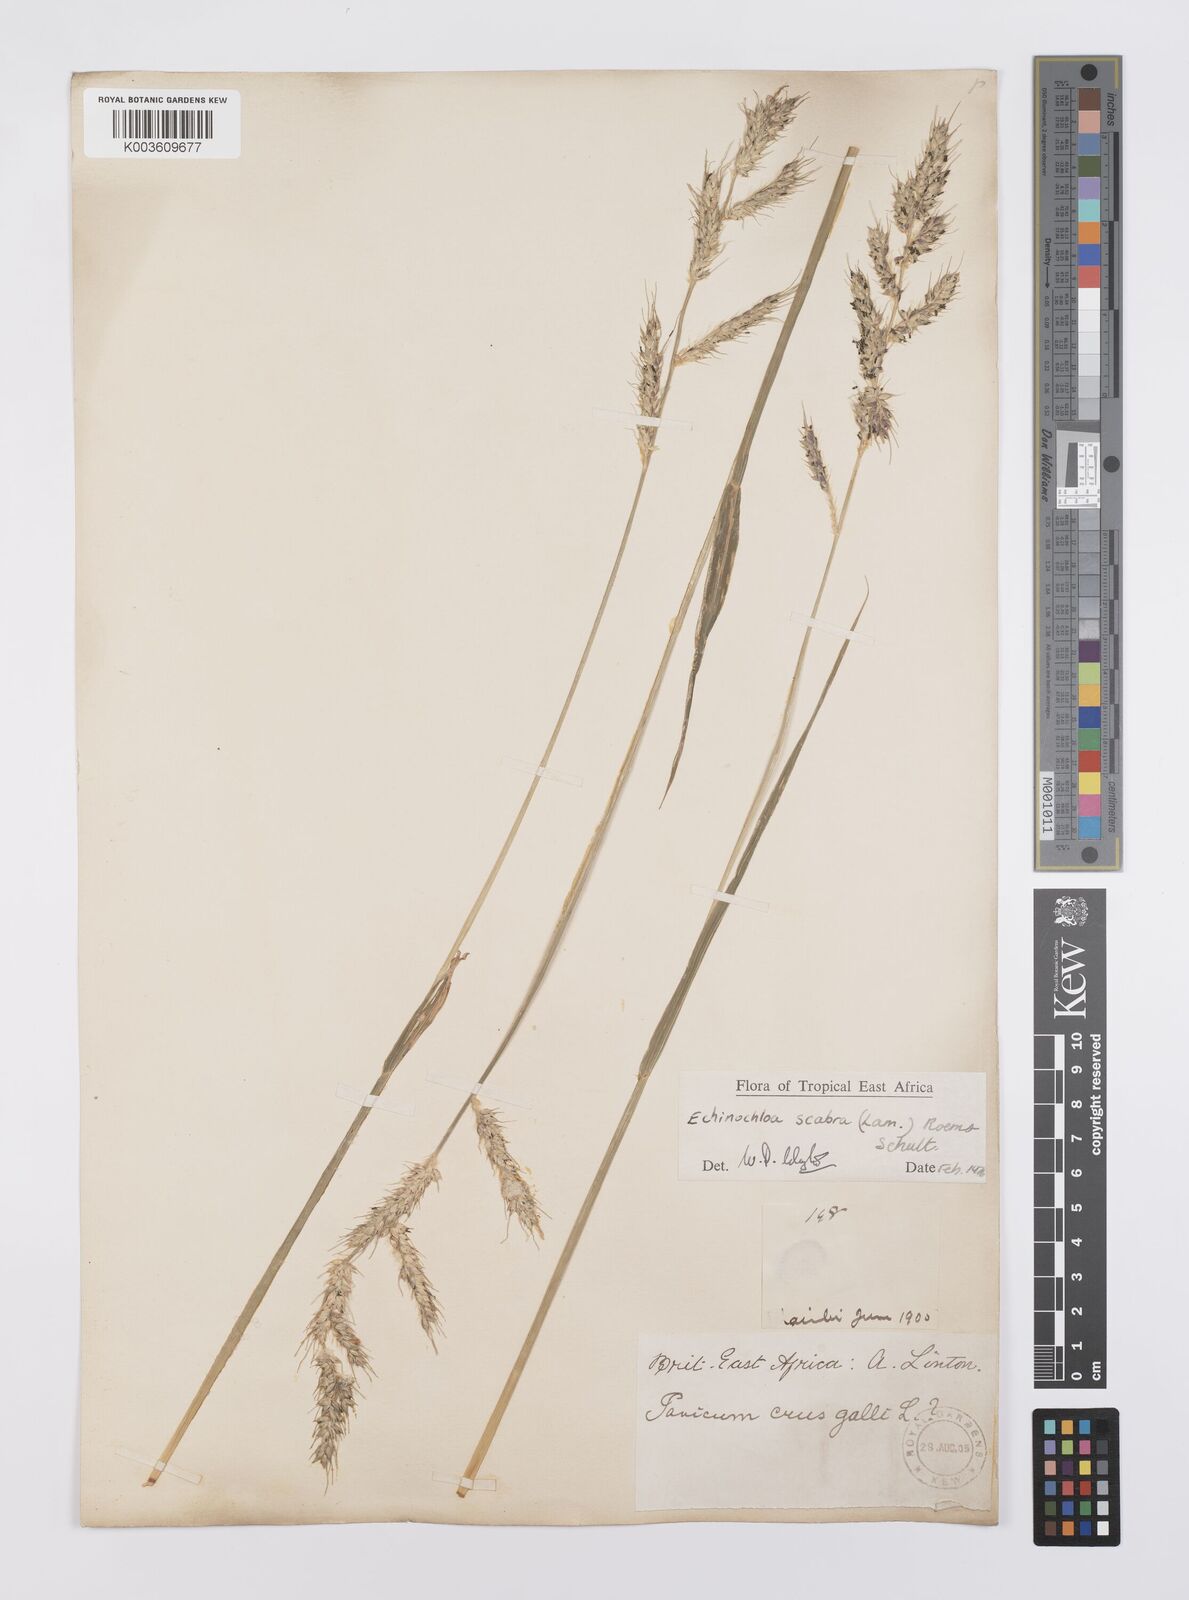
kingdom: Plantae
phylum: Tracheophyta
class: Liliopsida
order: Poales
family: Poaceae
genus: Echinochloa
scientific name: Echinochloa stagnina
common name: Burgu grass
